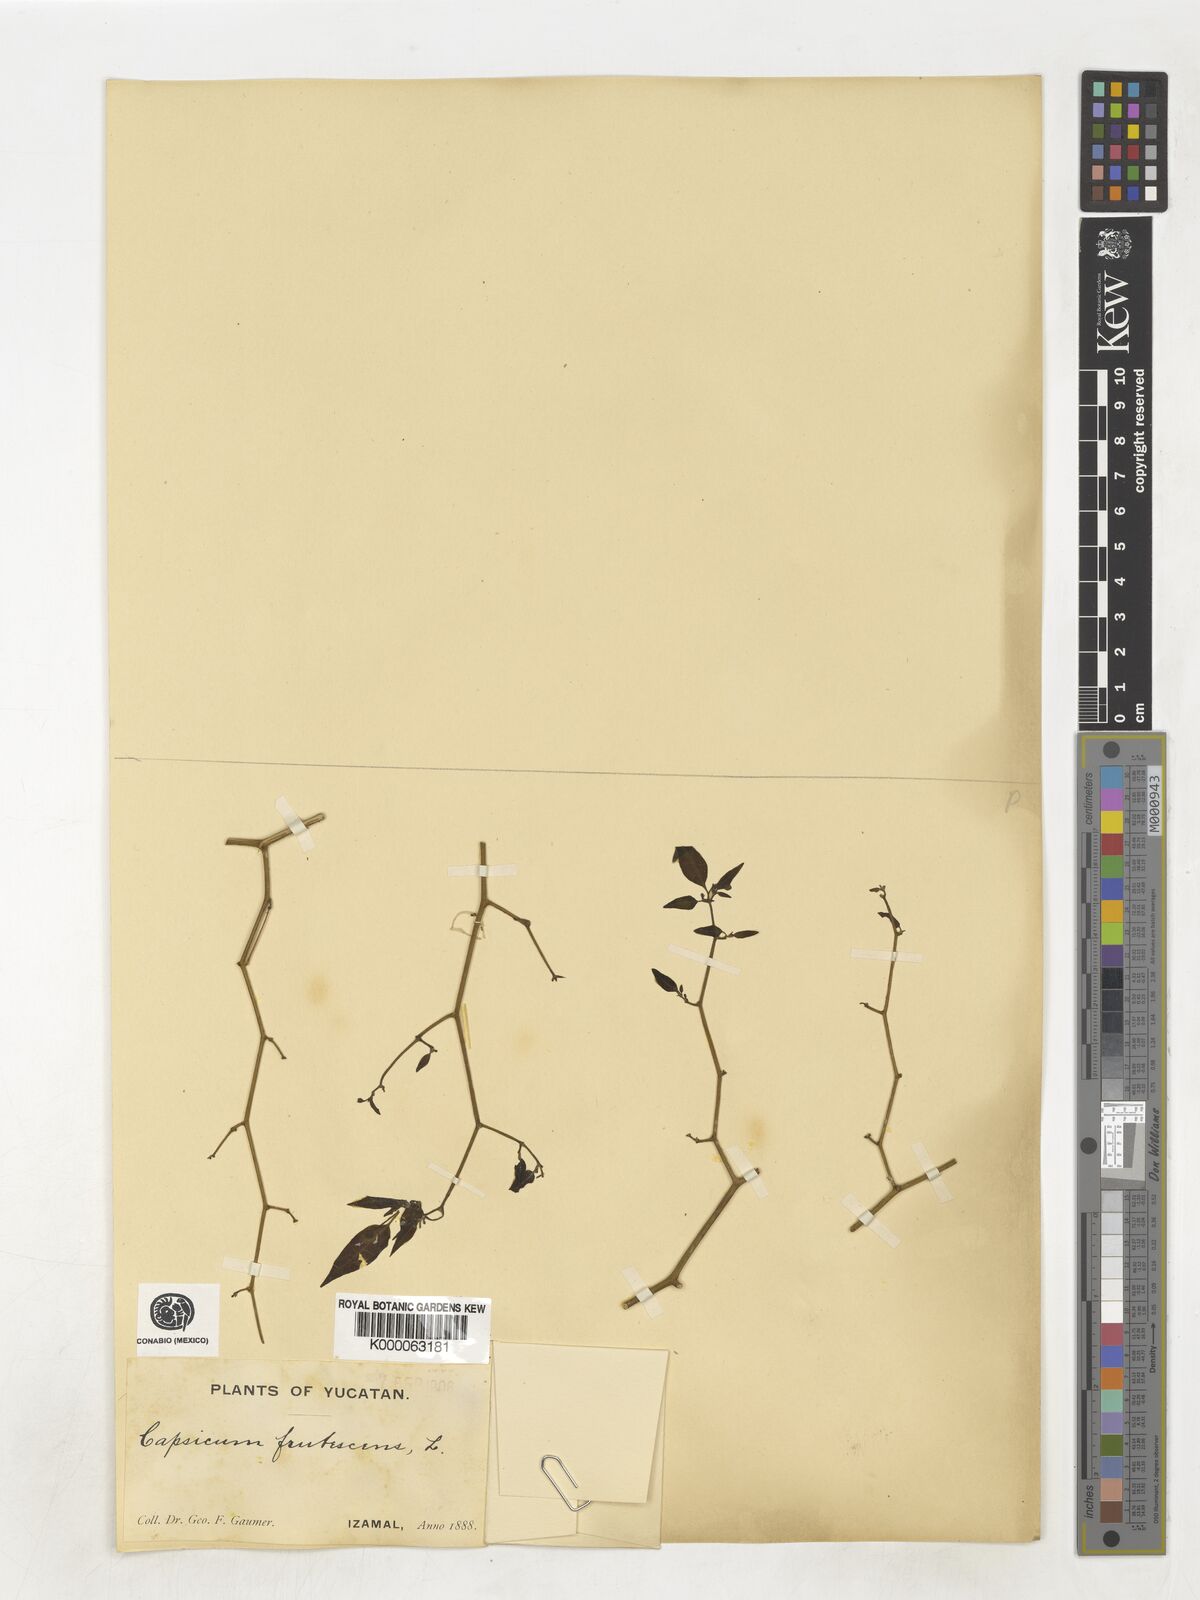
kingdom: Plantae
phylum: Tracheophyta
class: Magnoliopsida
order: Solanales
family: Solanaceae
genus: Capsicum
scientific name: Capsicum frutescens
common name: Bird pepper
